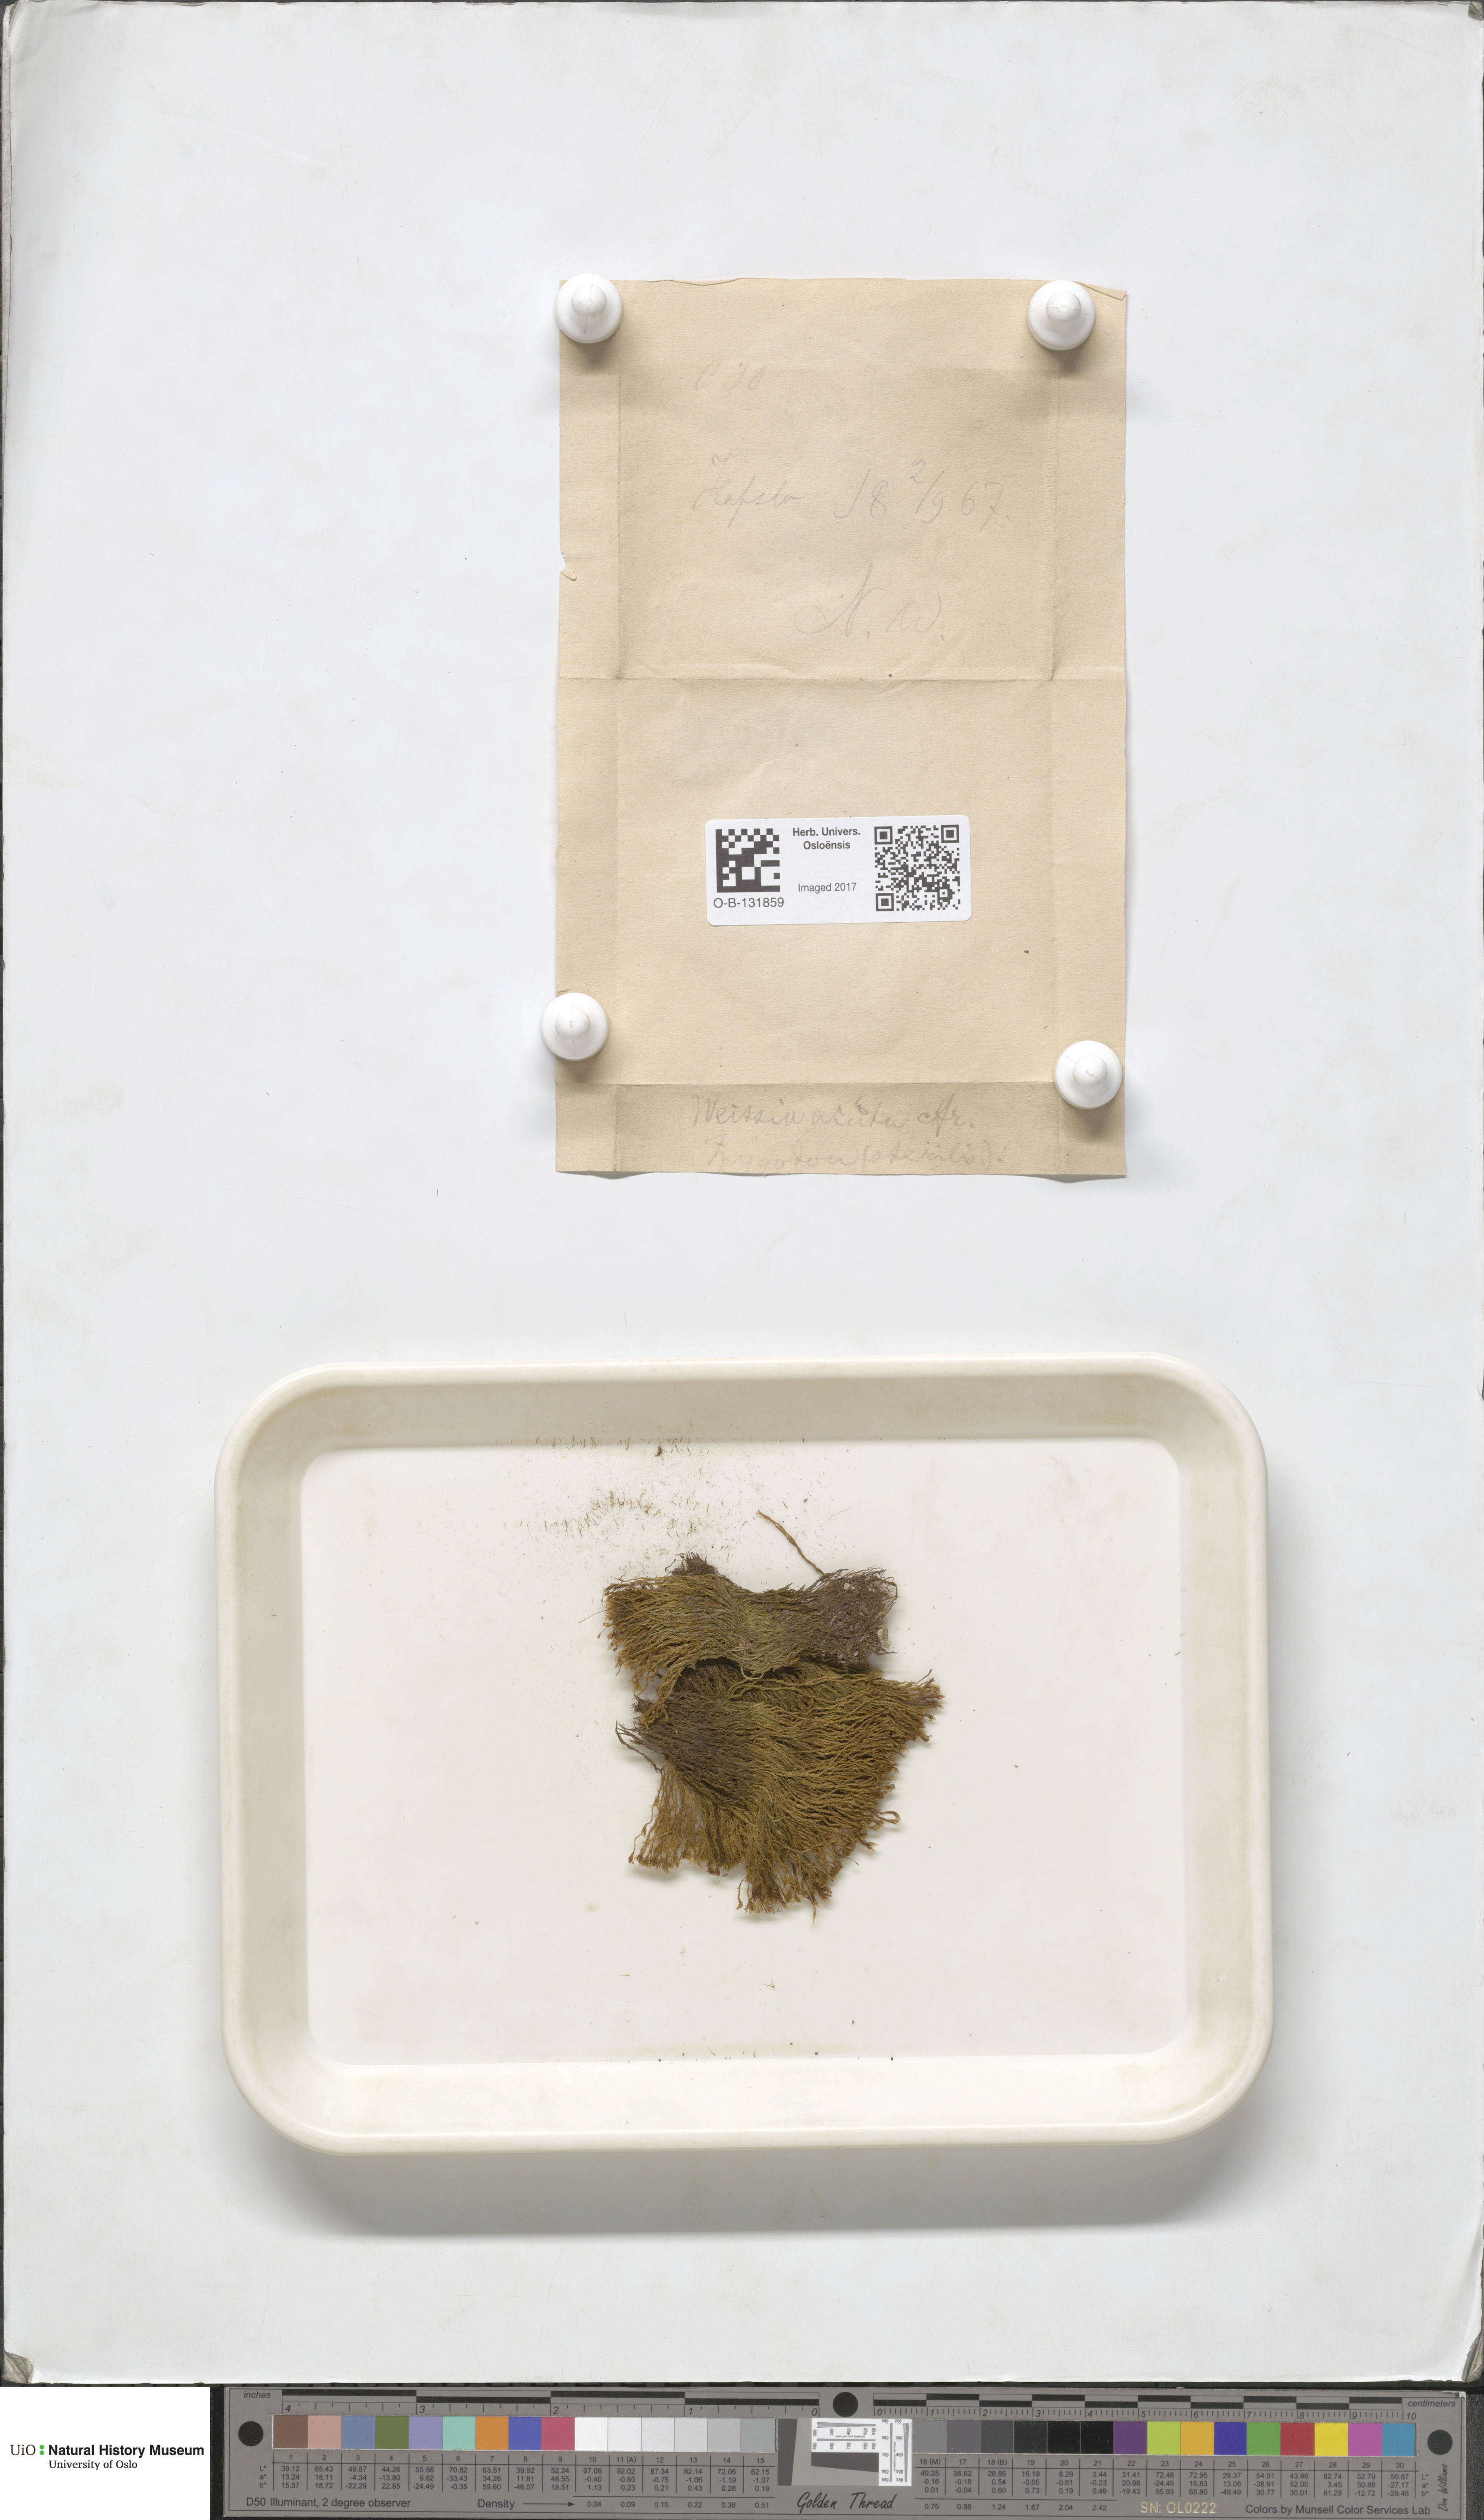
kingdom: Plantae
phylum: Bryophyta
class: Bryopsida
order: Grimmiales
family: Seligeriaceae
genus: Blindia
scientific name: Blindia acuta
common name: Sharp-leaved blind's moss
